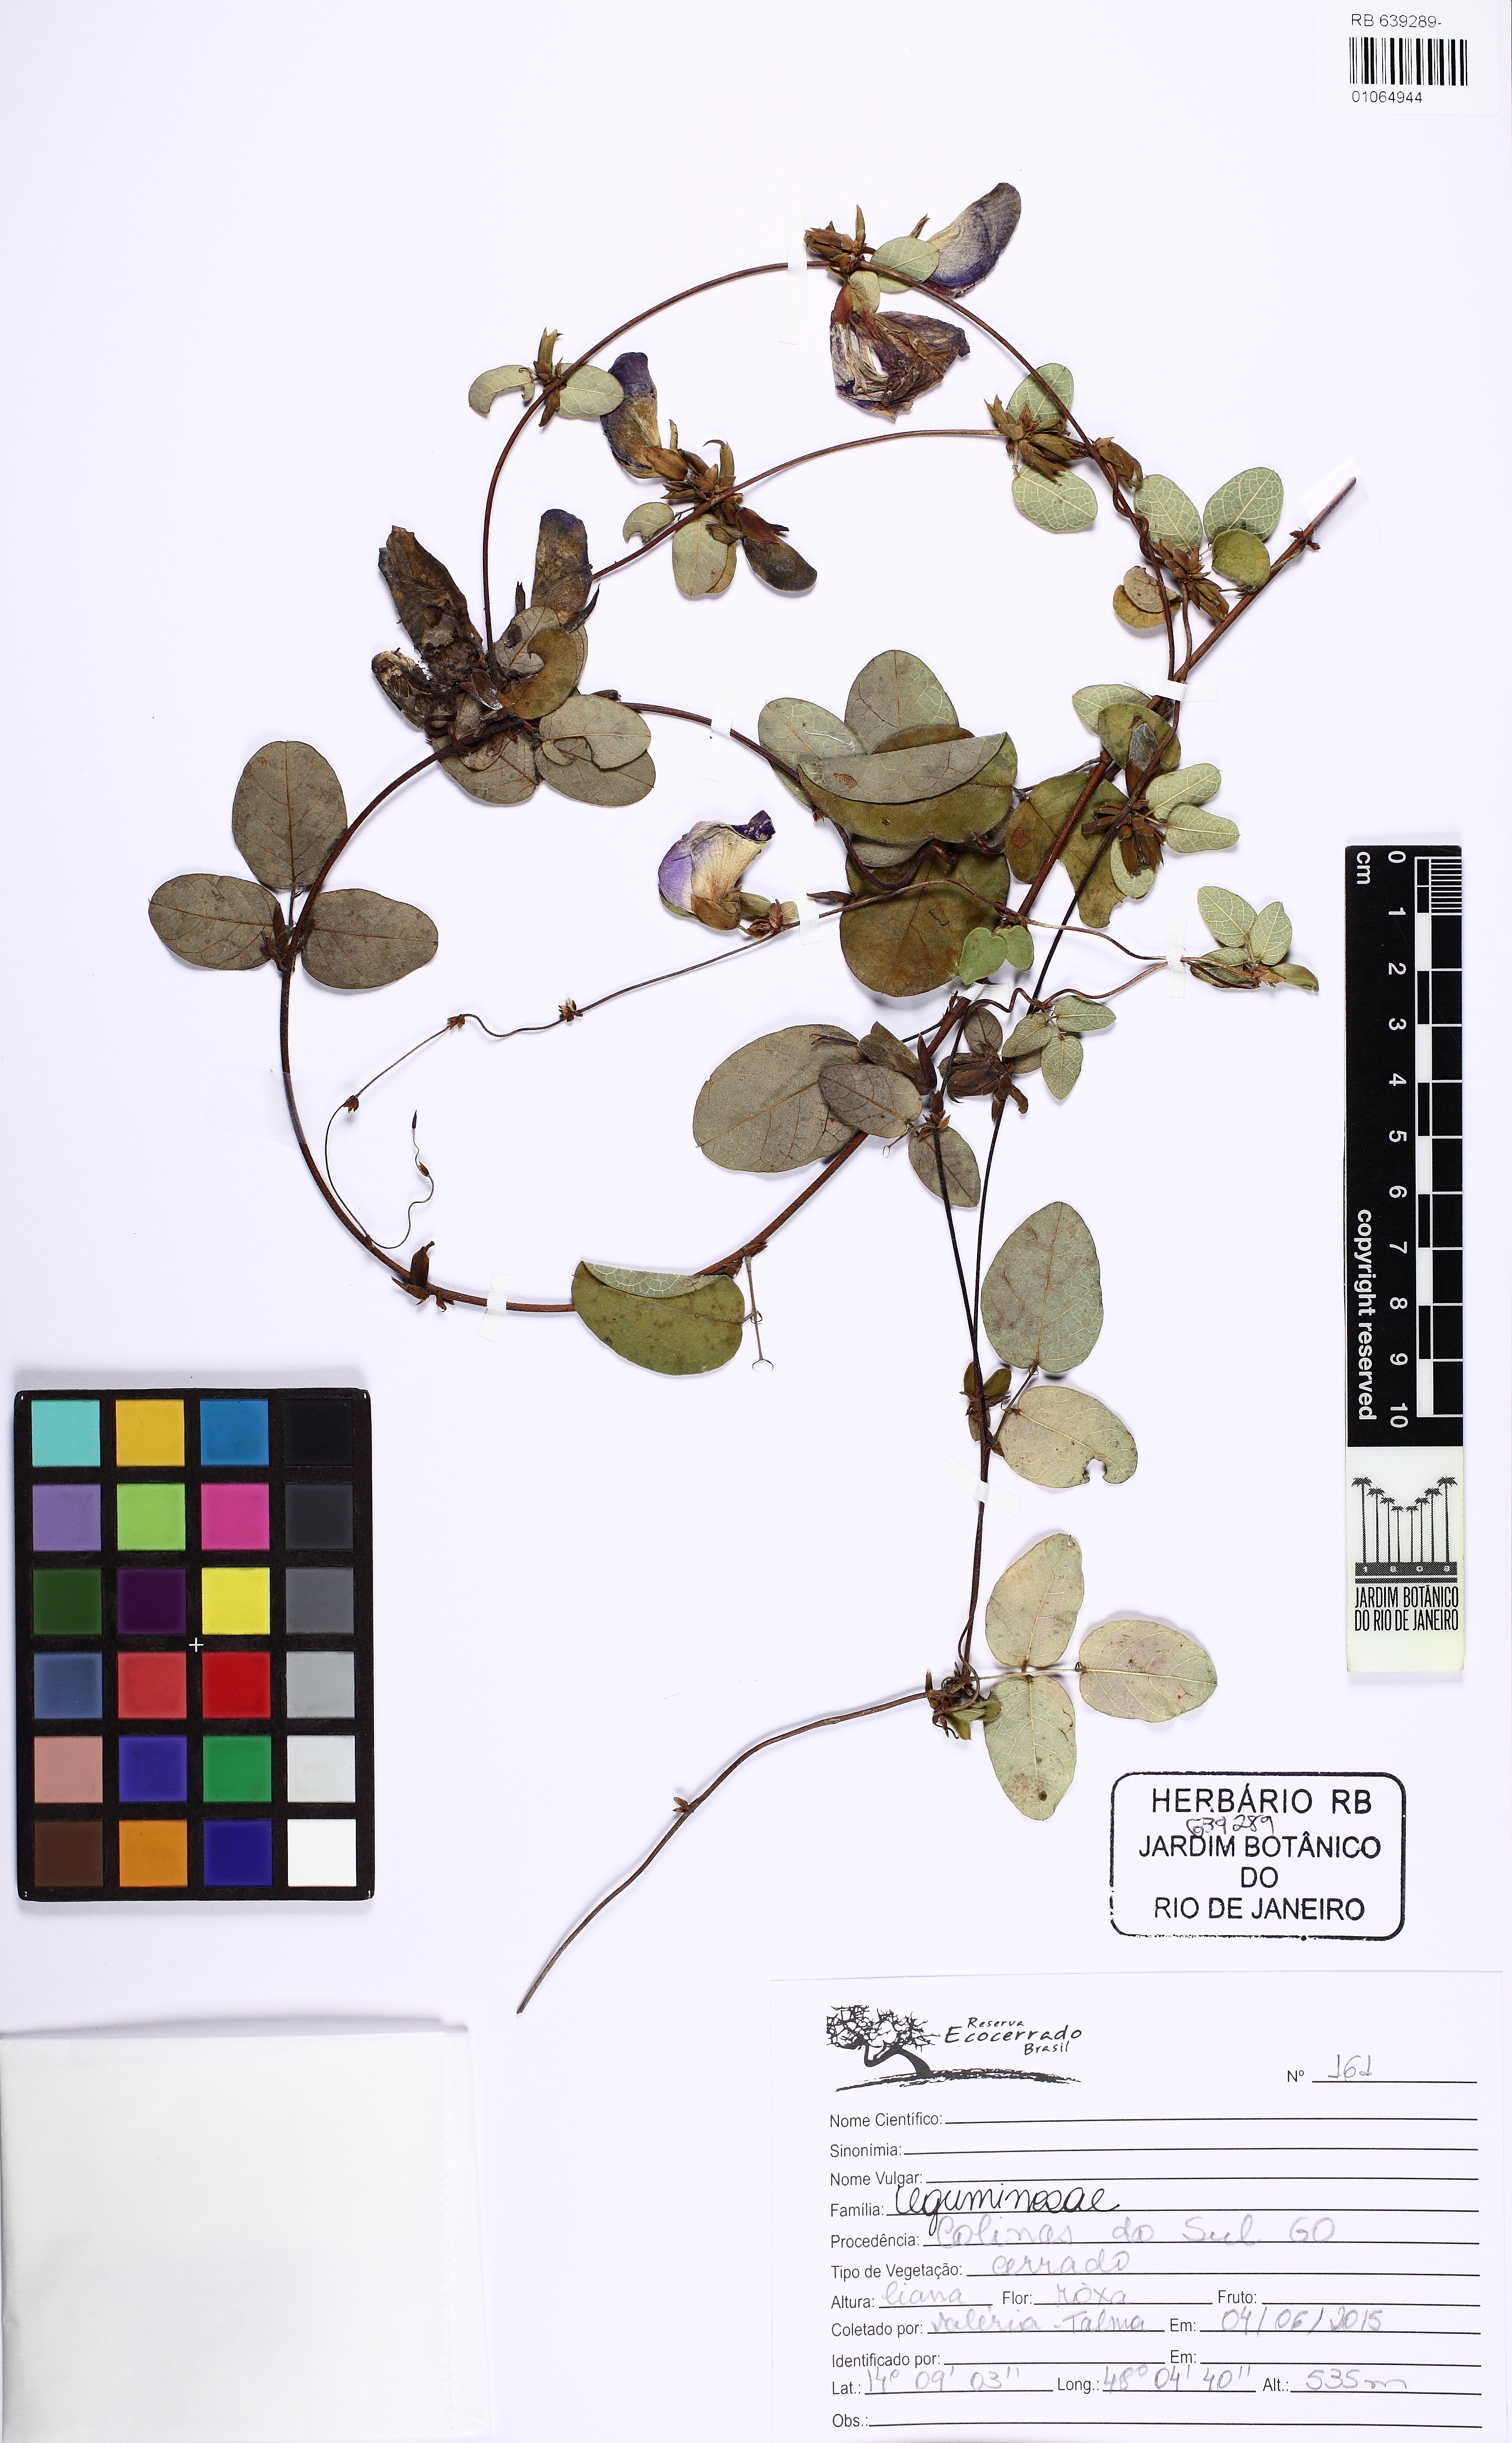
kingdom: Plantae
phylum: Tracheophyta
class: Magnoliopsida
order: Fabales
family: Fabaceae
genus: Periandra
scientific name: Periandra
